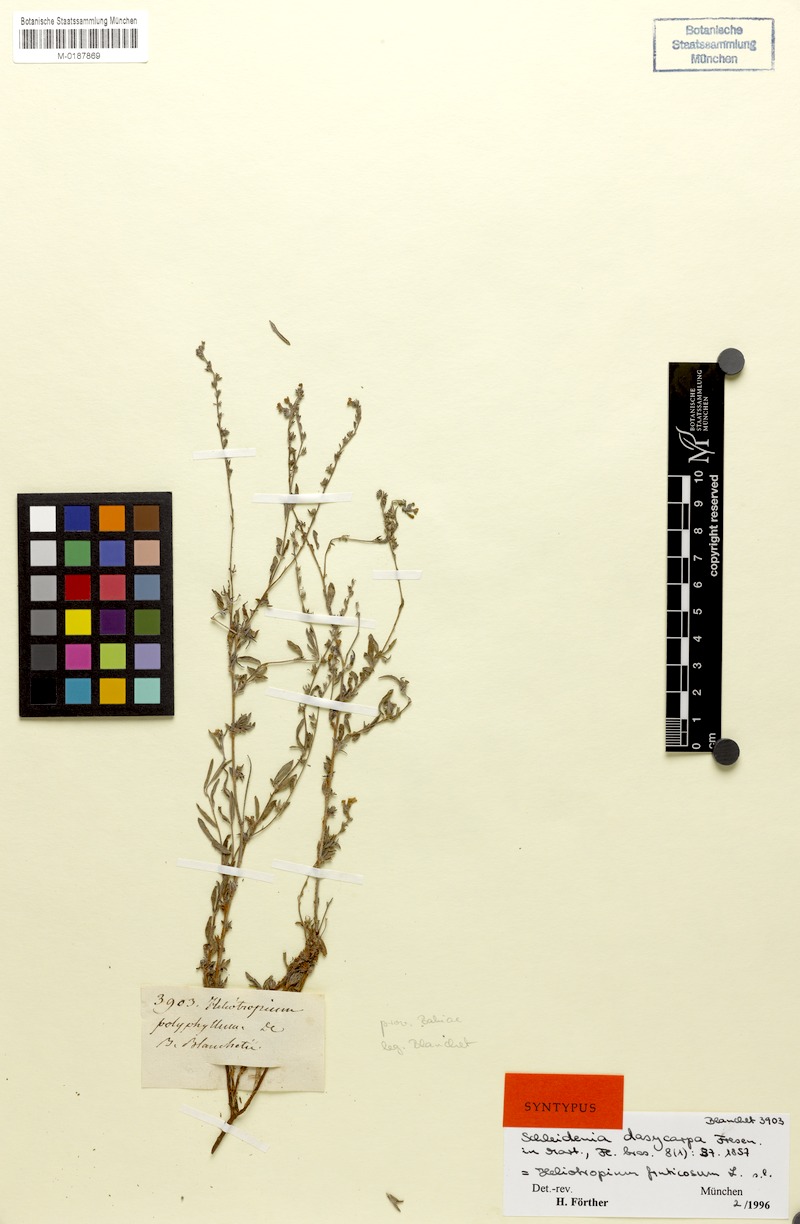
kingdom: Plantae
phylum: Tracheophyta
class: Magnoliopsida
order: Boraginales
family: Heliotropiaceae
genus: Euploca
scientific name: Euploca fruticosa
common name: Key west heliotrope
